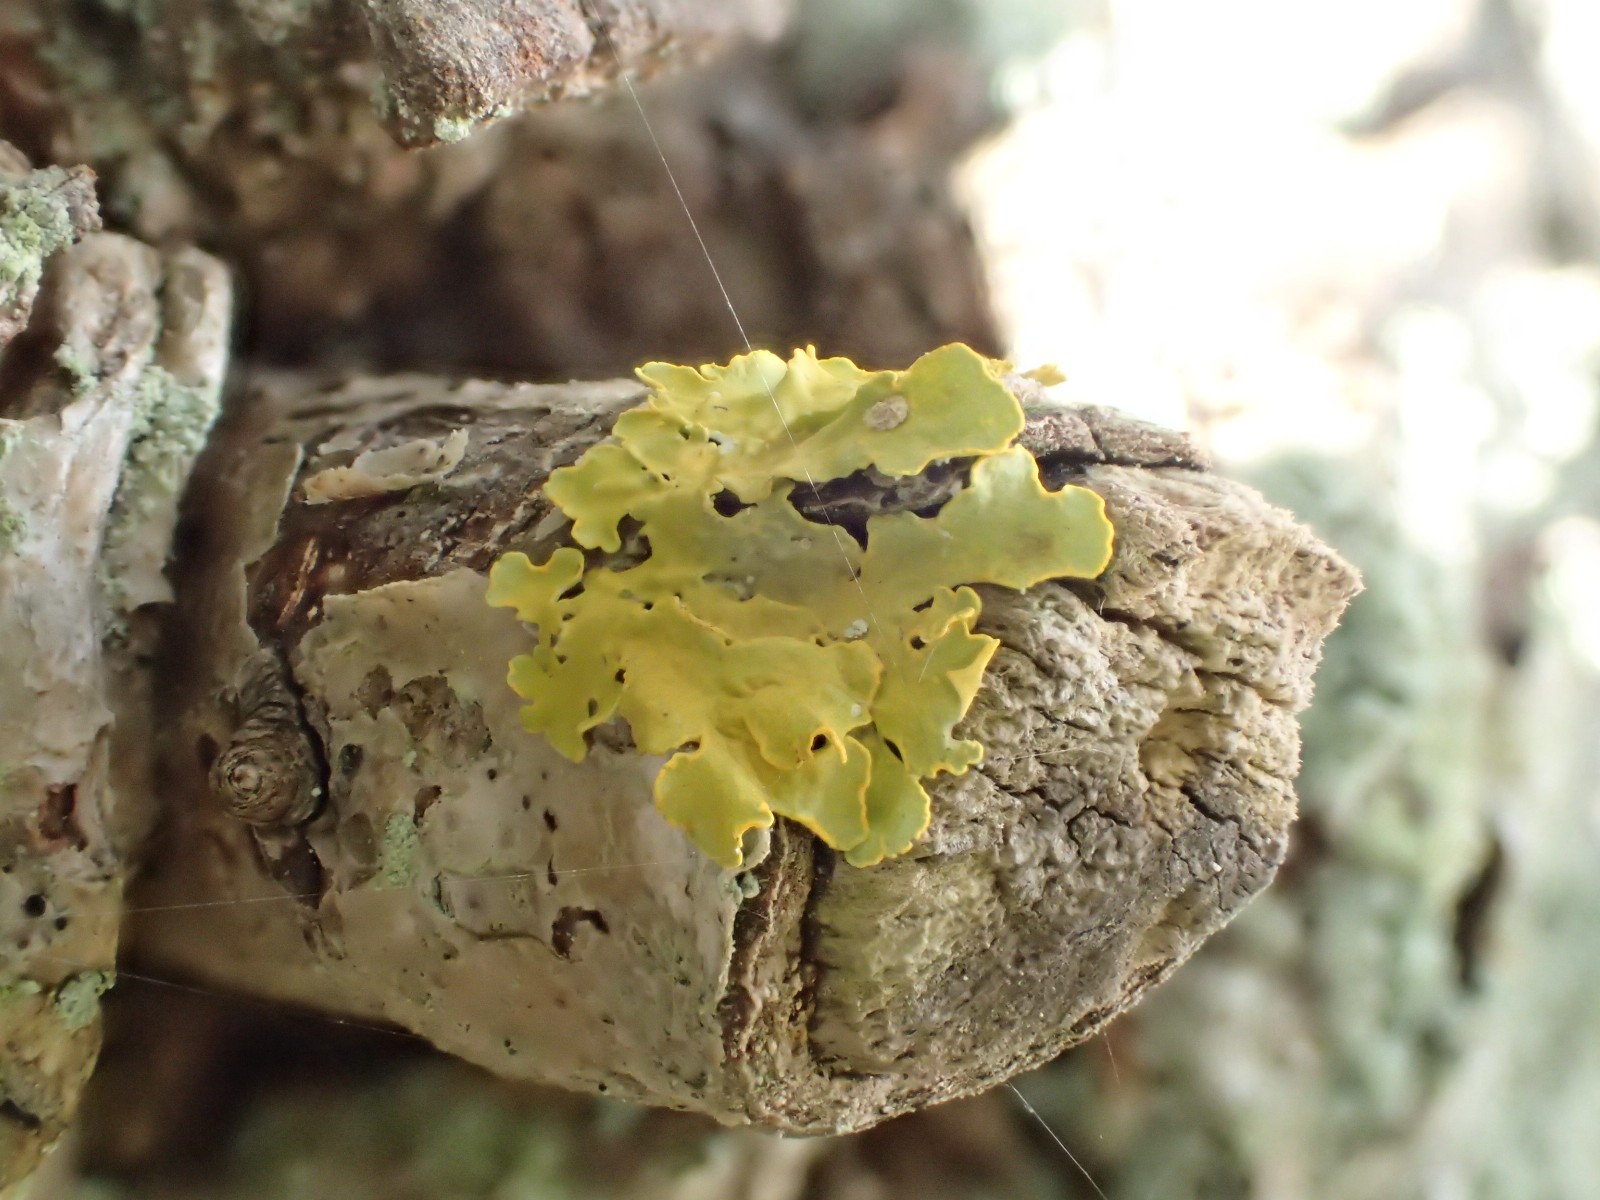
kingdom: Fungi
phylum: Ascomycota
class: Lecanoromycetes
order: Teloschistales
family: Teloschistaceae
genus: Xanthoria
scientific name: Xanthoria parietina
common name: almindelig væggelav
